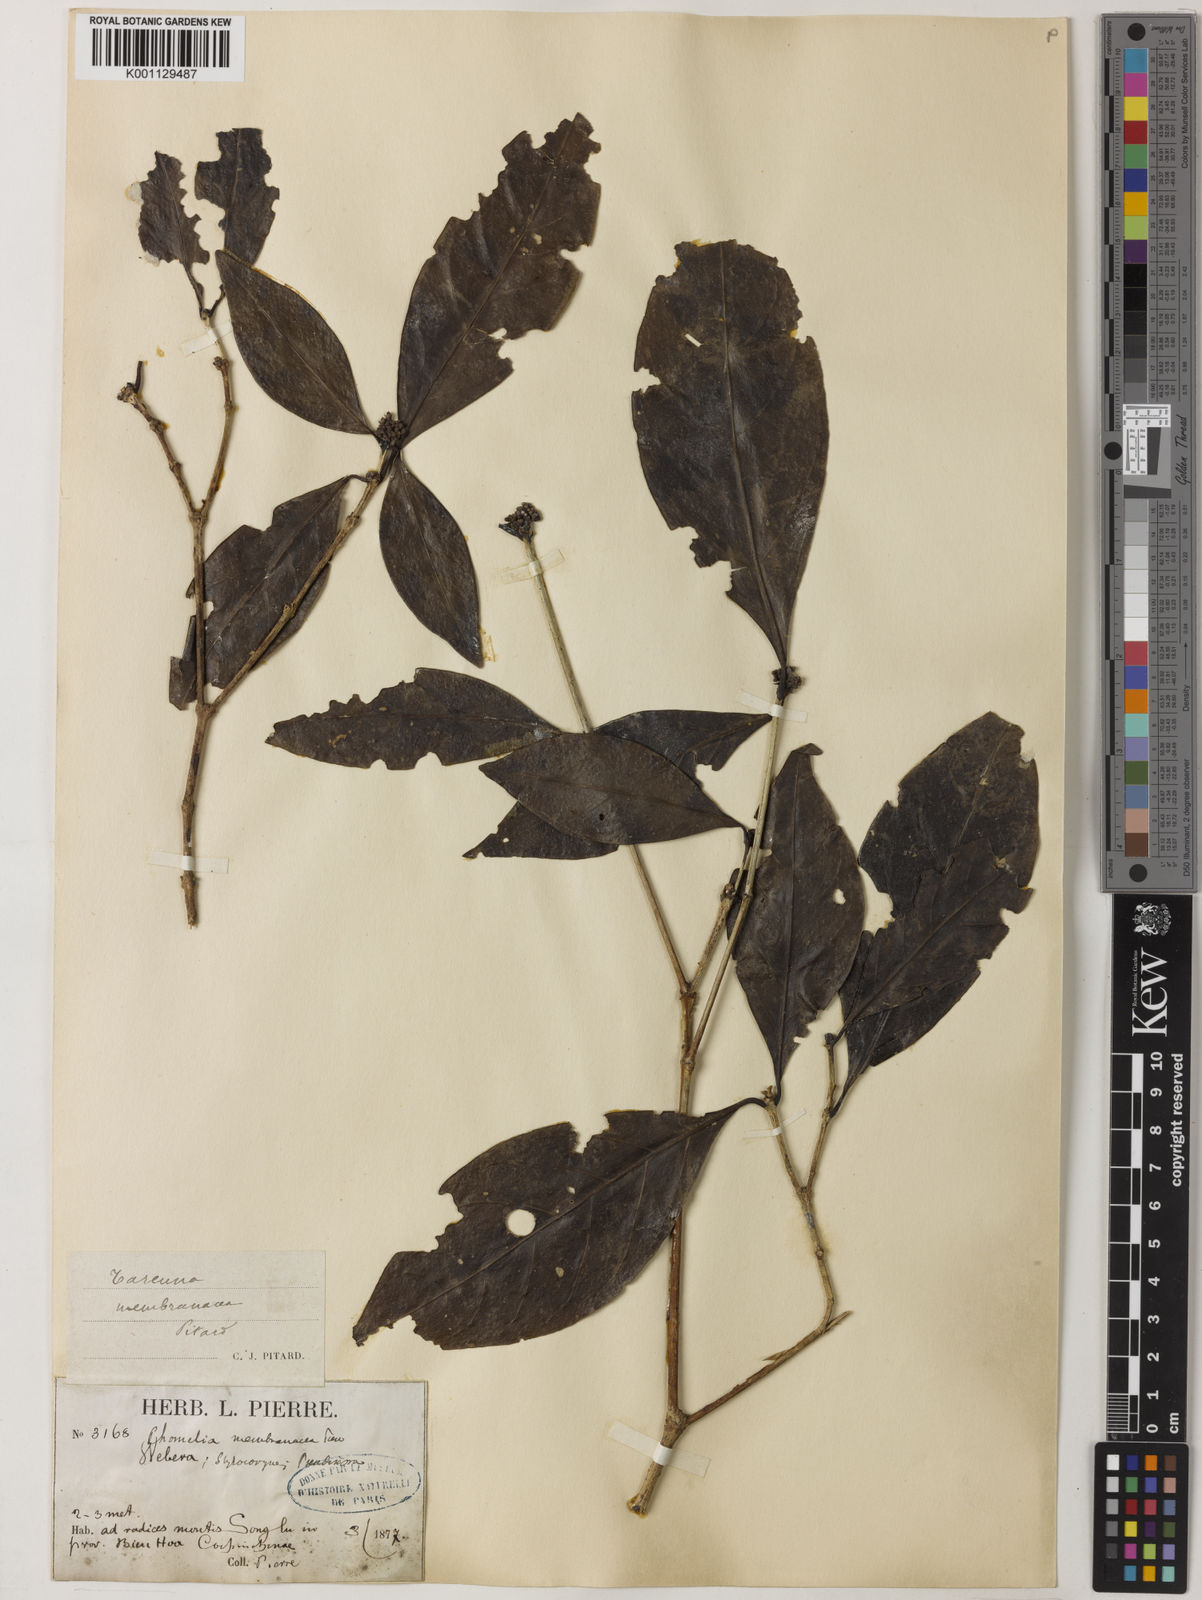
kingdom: Plantae
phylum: Tracheophyta
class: Magnoliopsida
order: Gentianales
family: Rubiaceae
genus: Tarenna
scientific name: Tarenna membranacea
